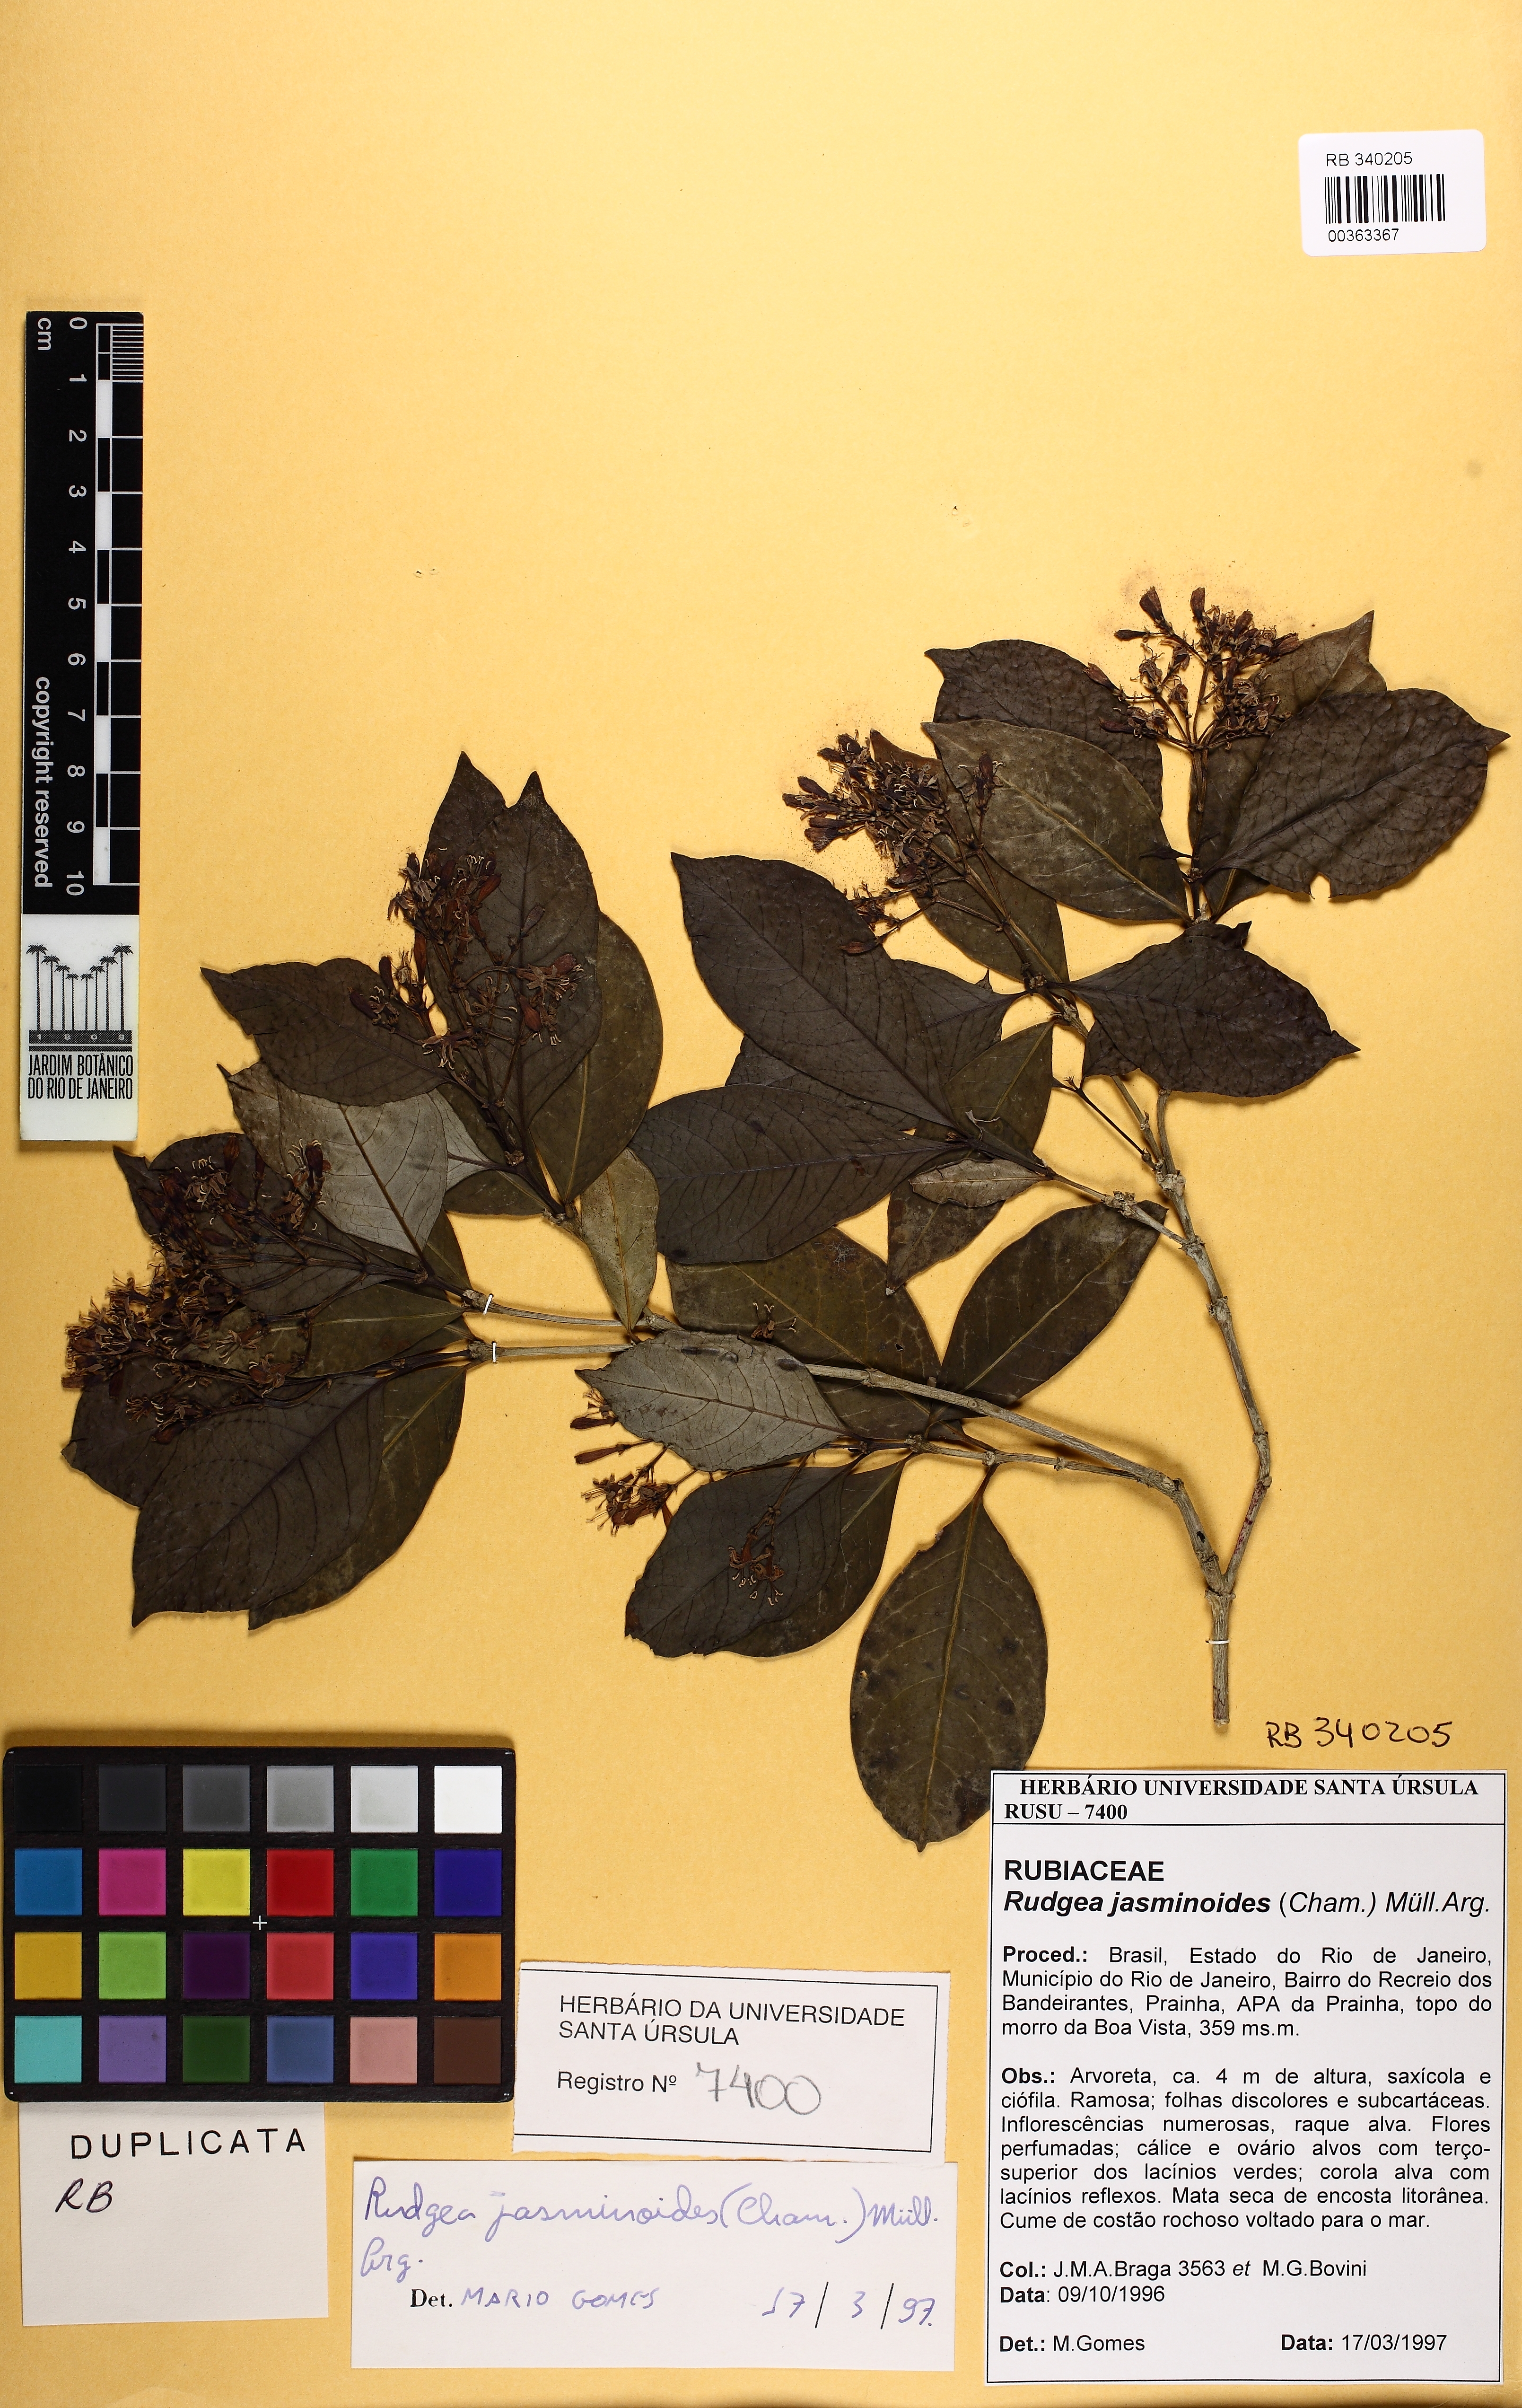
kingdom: Plantae
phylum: Tracheophyta
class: Magnoliopsida
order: Gentianales
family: Rubiaceae
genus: Rudgea
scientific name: Rudgea minor
